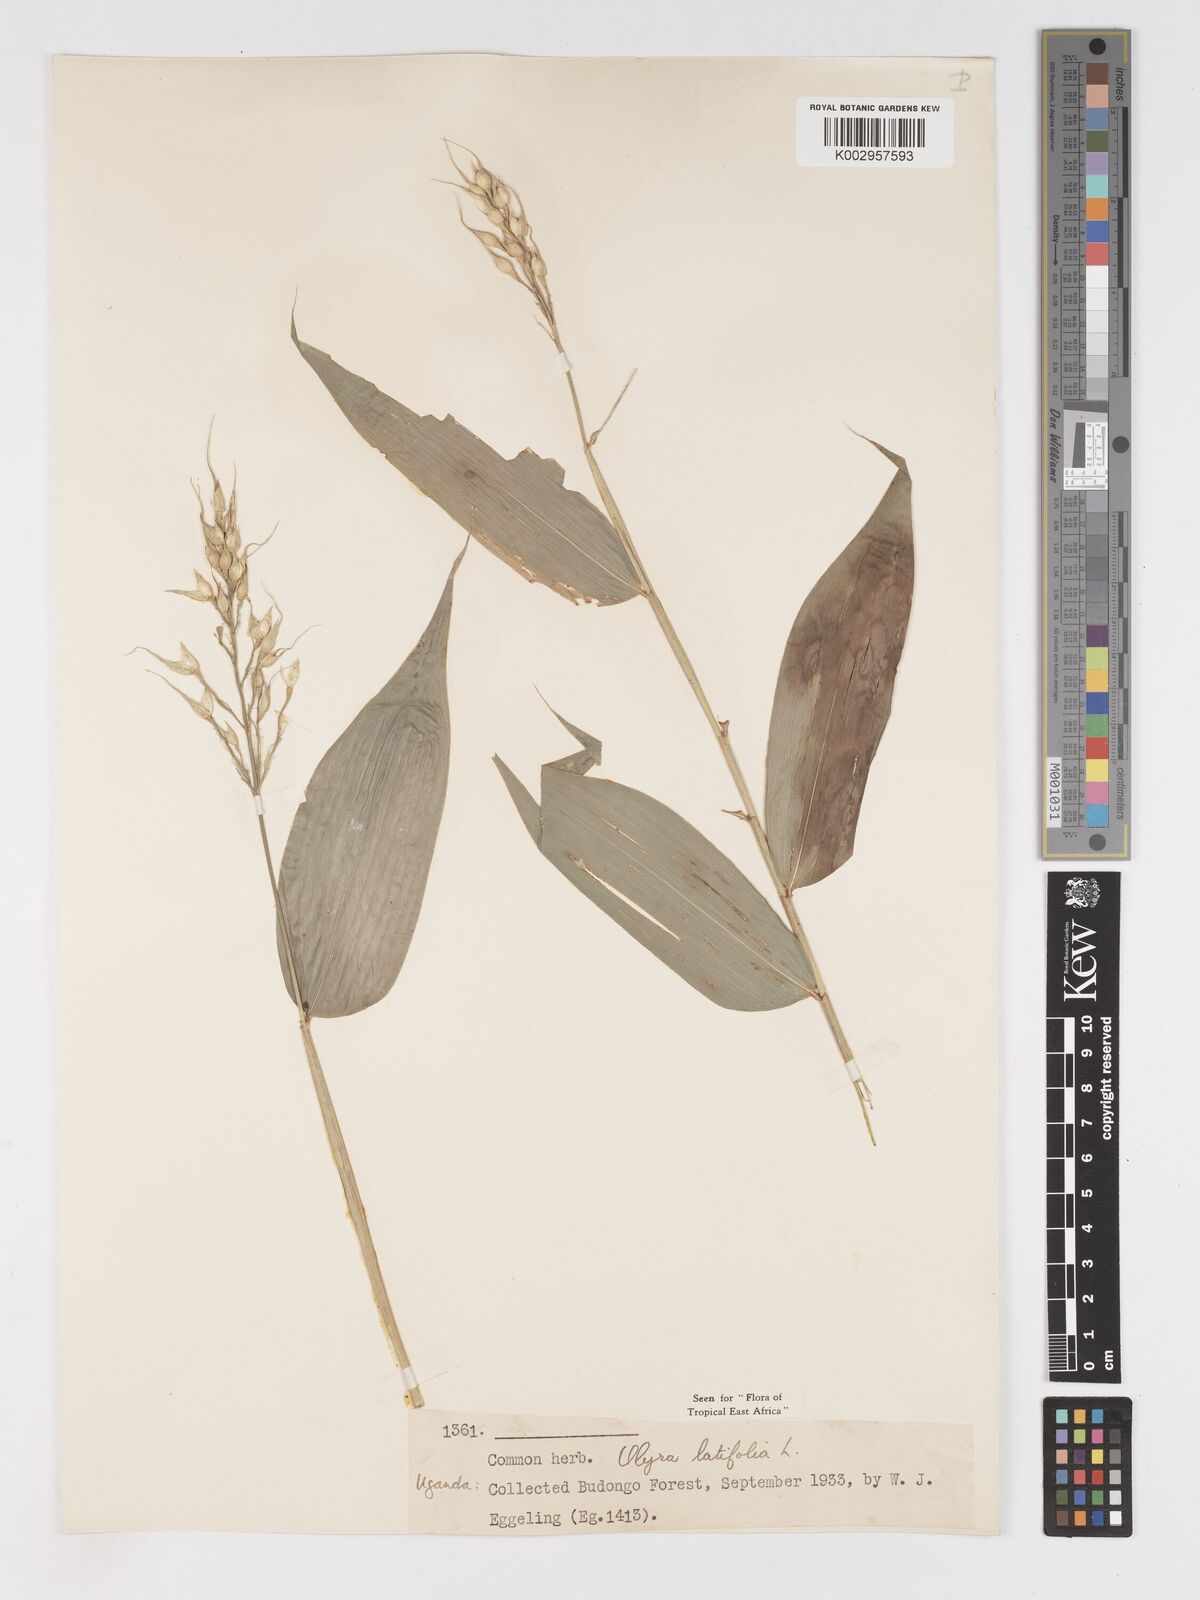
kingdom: Plantae
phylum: Tracheophyta
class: Liliopsida
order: Poales
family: Poaceae
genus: Olyra
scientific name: Olyra latifolia
